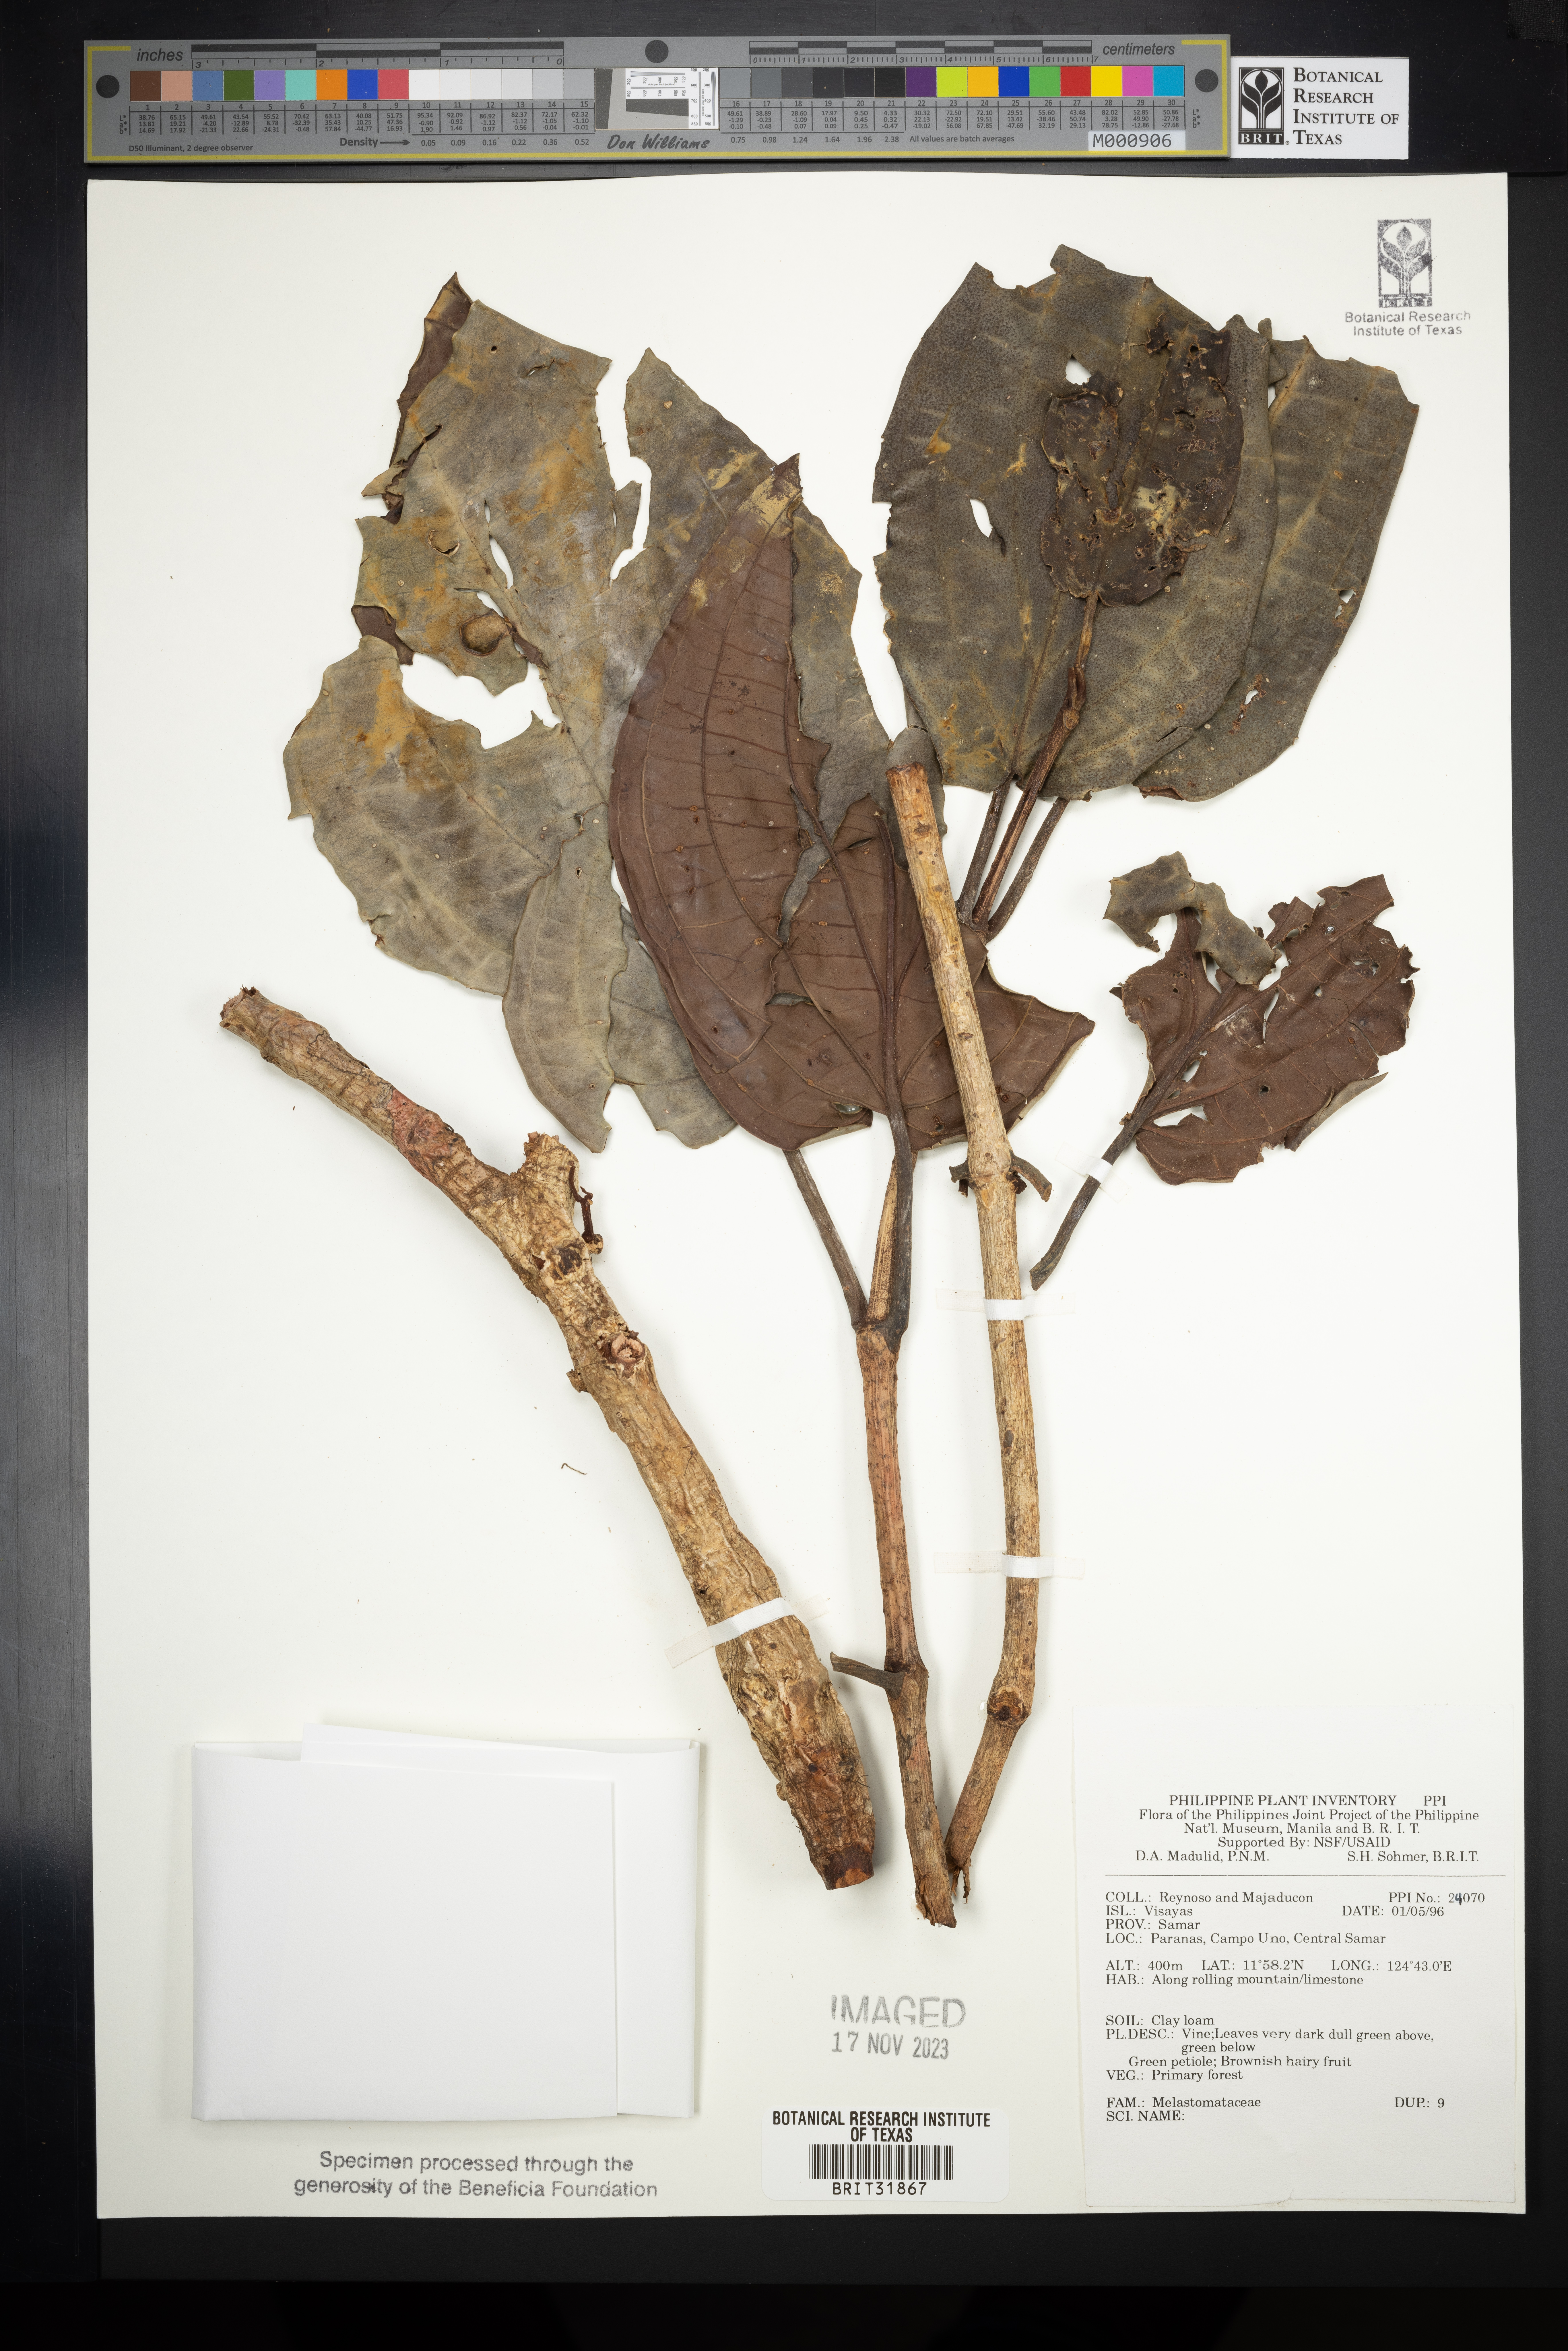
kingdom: Plantae
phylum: Tracheophyta
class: Magnoliopsida
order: Myrtales
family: Melastomataceae
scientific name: Melastomataceae
